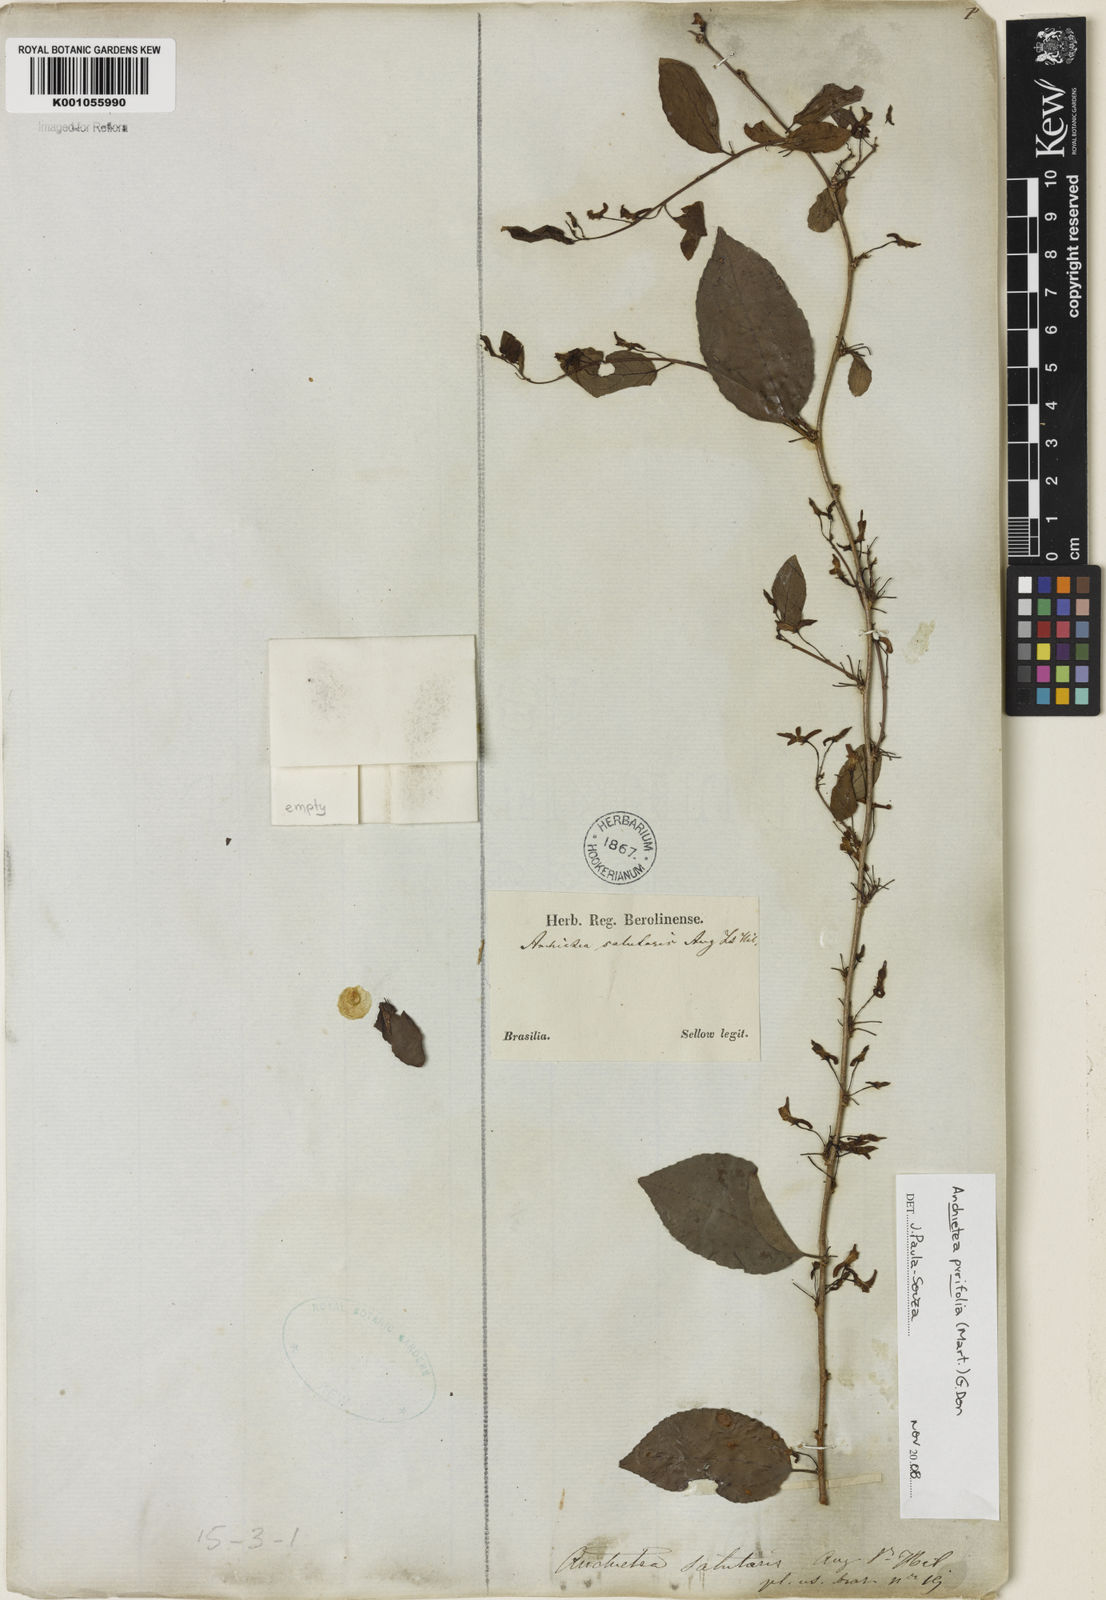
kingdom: Plantae
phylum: Tracheophyta
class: Magnoliopsida
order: Malpighiales
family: Violaceae
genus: Anchietea
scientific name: Anchietea pyrifolia
